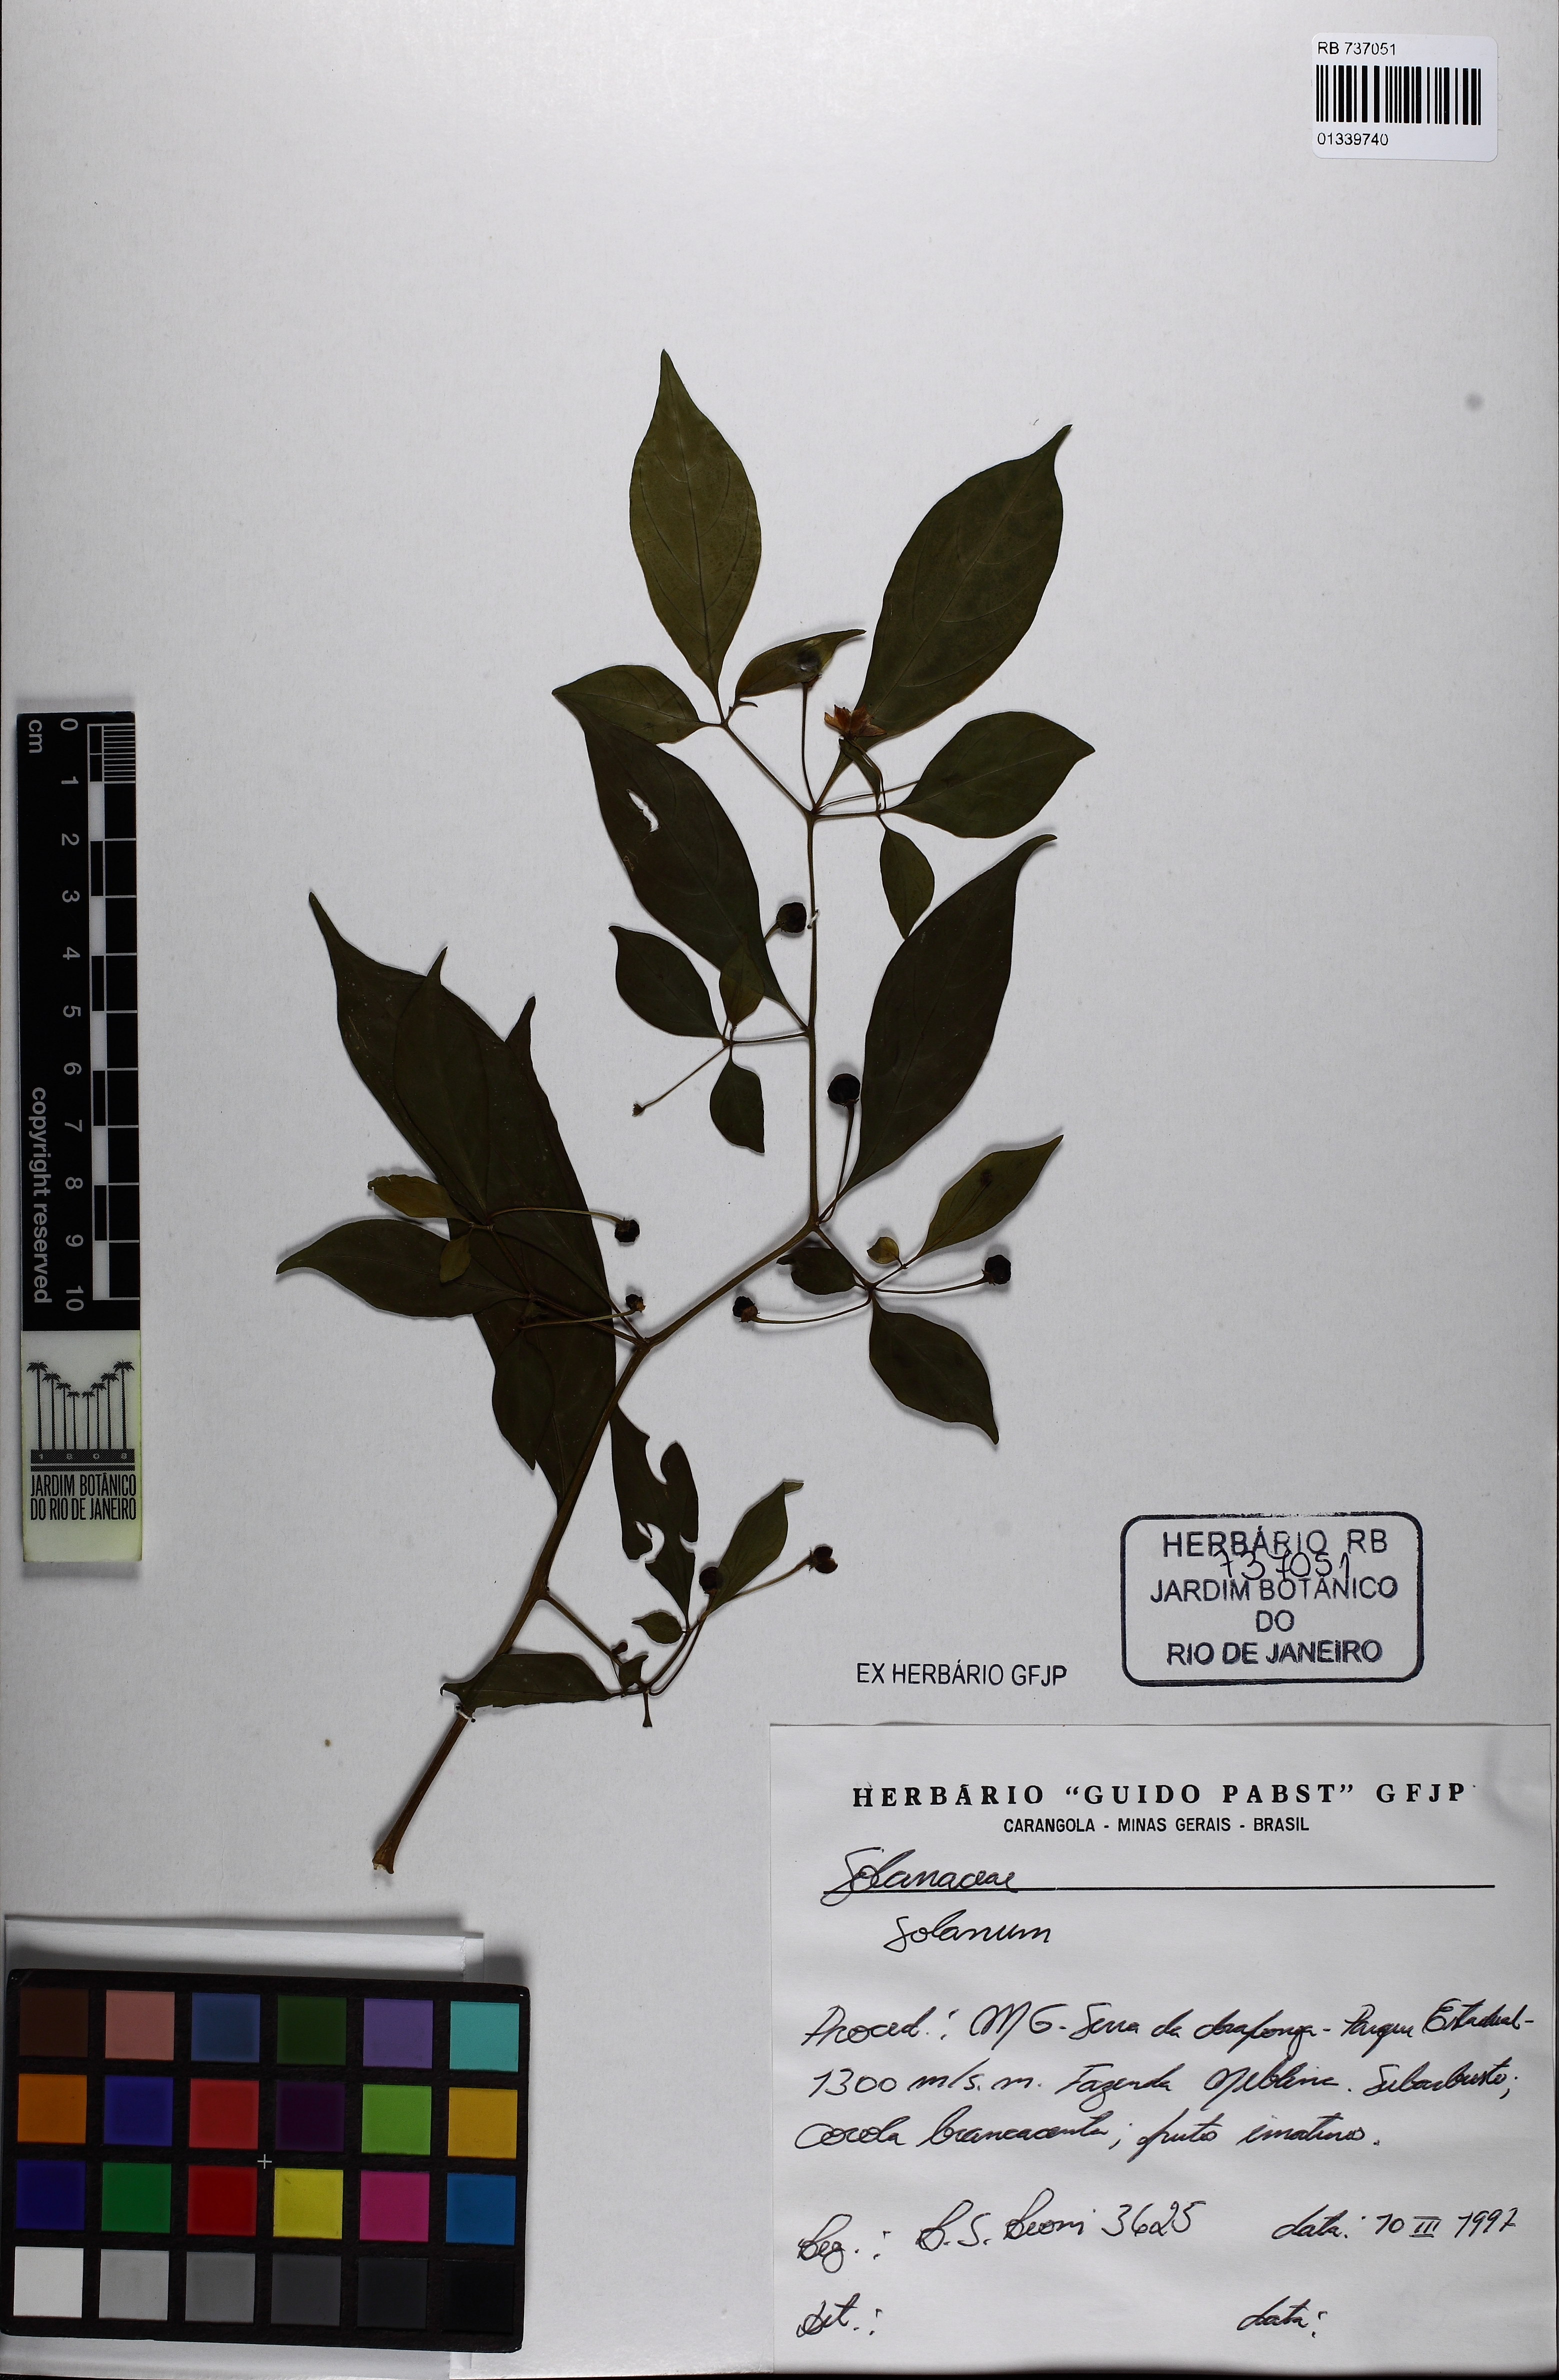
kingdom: Plantae
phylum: Tracheophyta
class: Magnoliopsida
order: Solanales
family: Solanaceae
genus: Capsicum
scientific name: Capsicum mirabile
